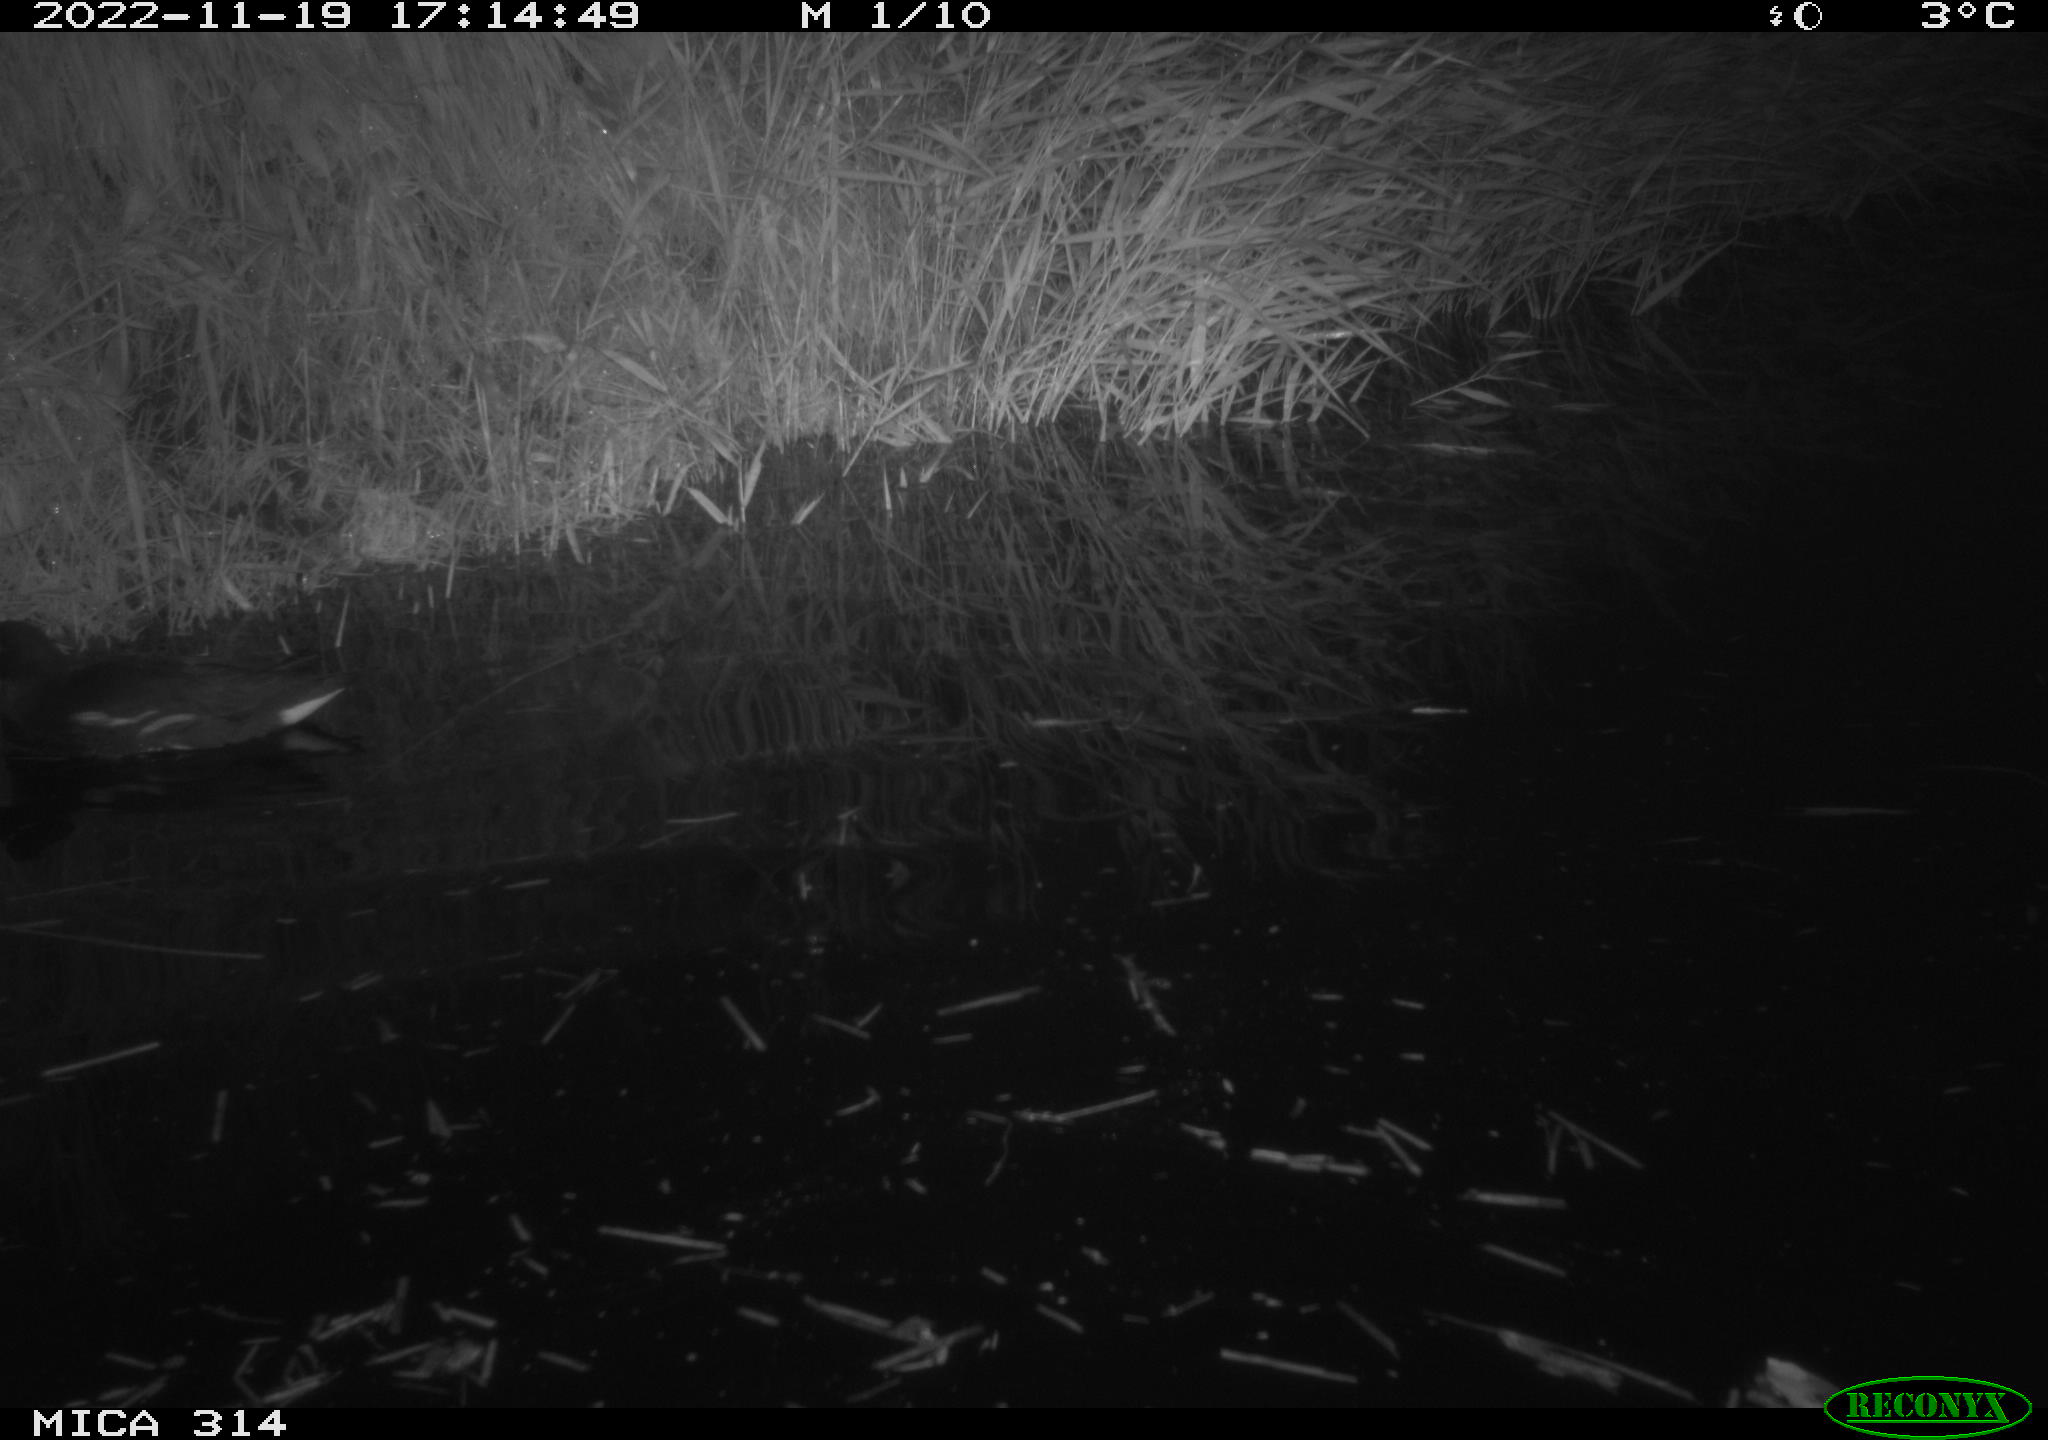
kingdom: Animalia
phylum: Chordata
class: Aves
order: Gruiformes
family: Rallidae
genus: Gallinula
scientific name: Gallinula chloropus
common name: Common moorhen
